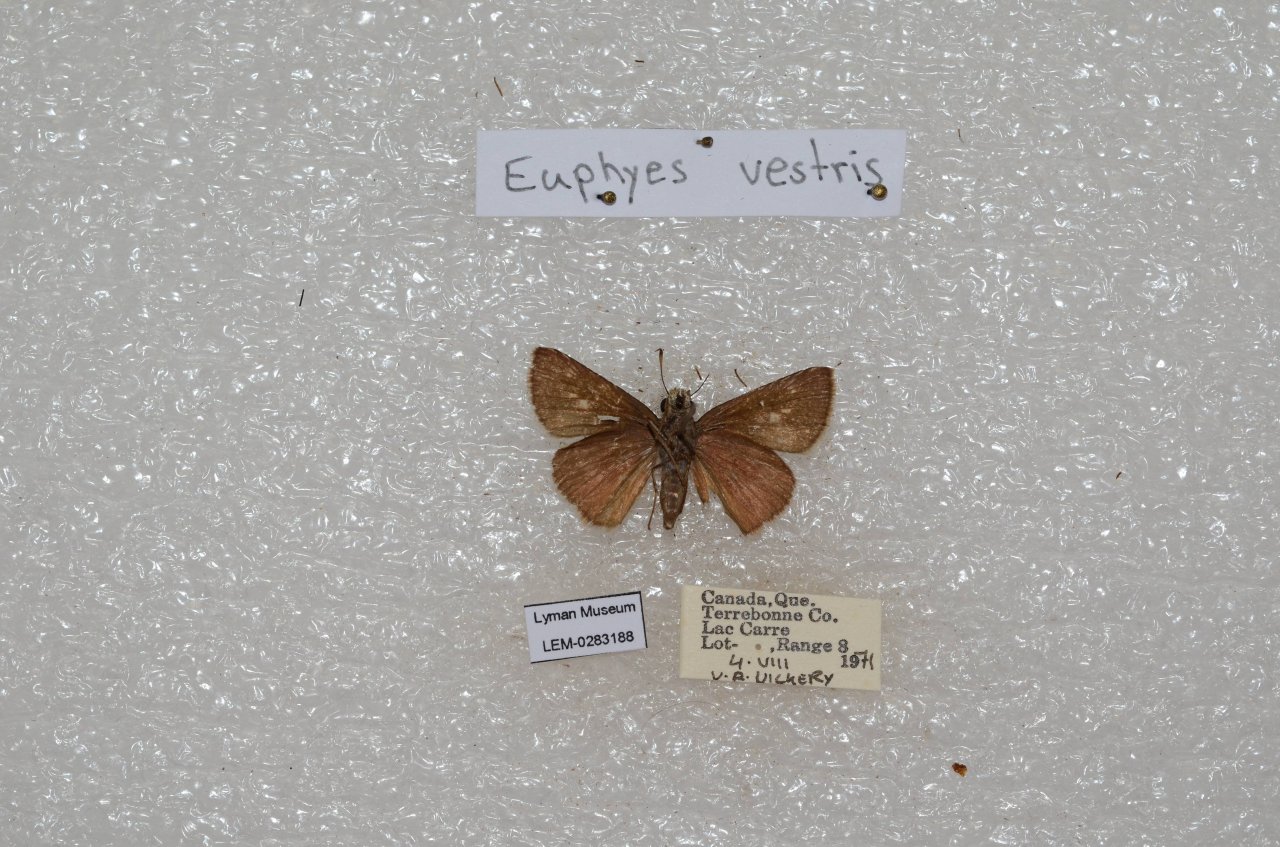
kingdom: Animalia
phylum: Arthropoda
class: Insecta
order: Lepidoptera
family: Hesperiidae
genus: Euphyes
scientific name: Euphyes vestris
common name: Dun Skipper
